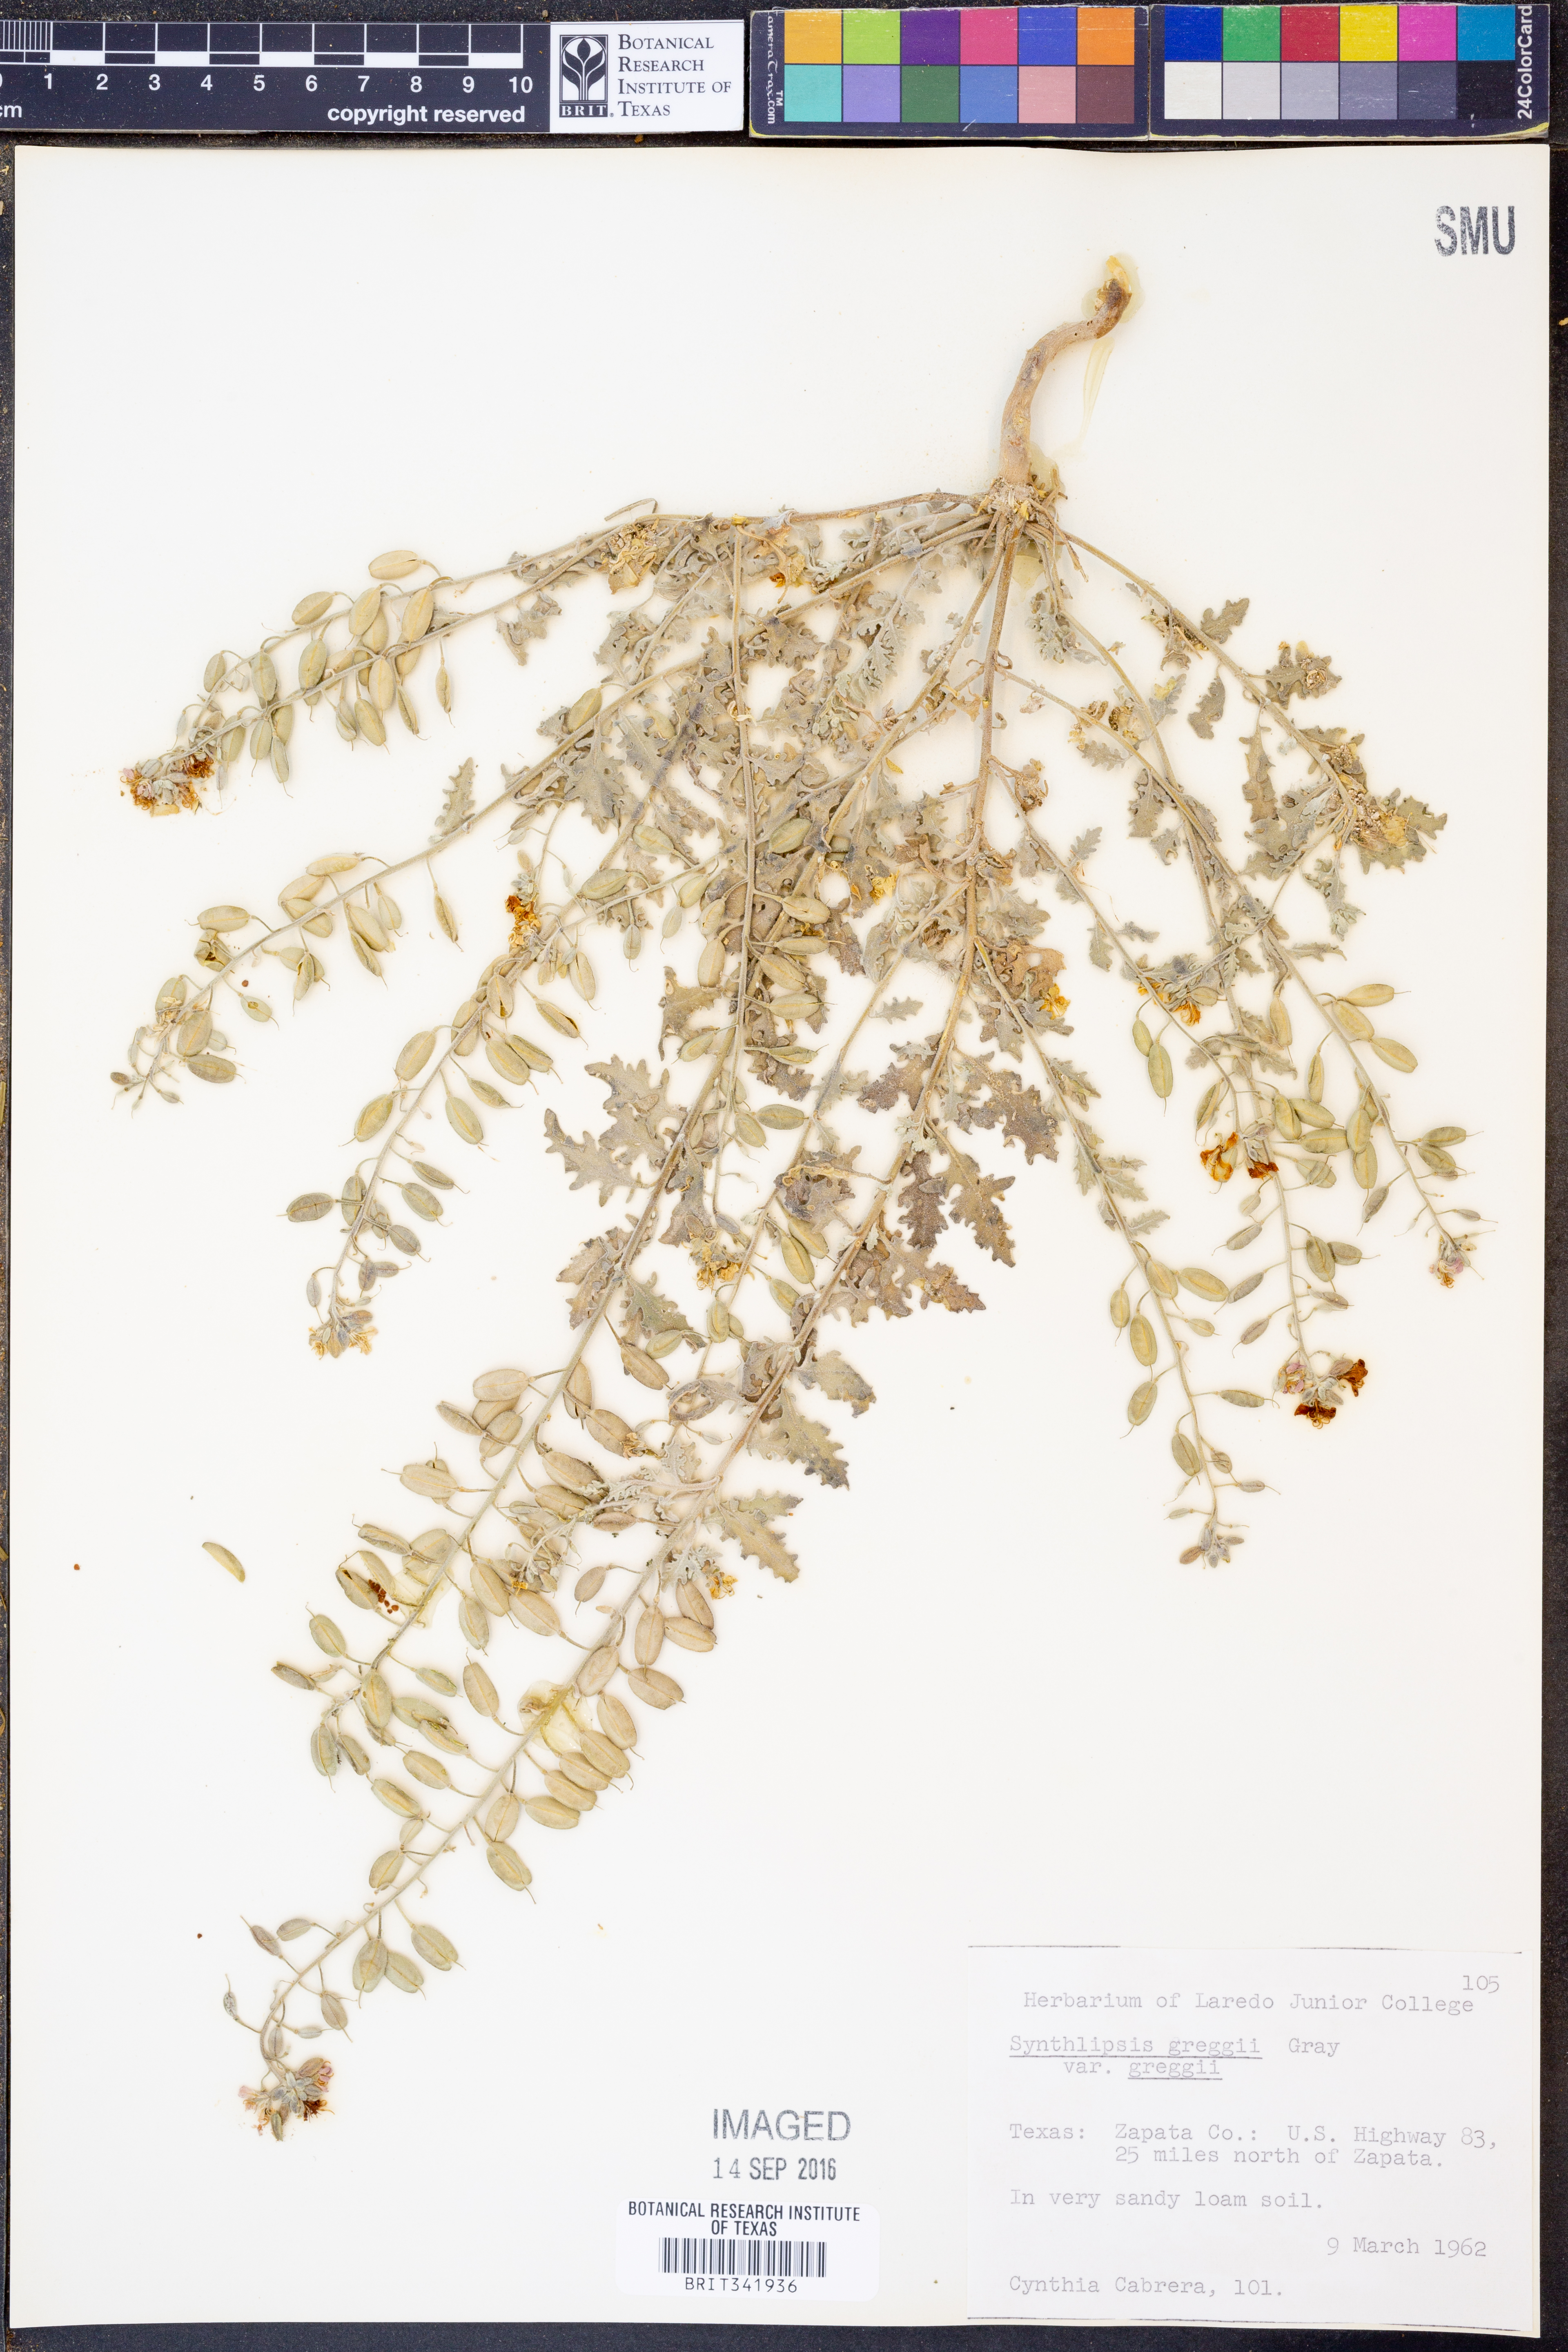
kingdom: Plantae
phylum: Tracheophyta
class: Magnoliopsida
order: Brassicales
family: Brassicaceae
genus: Synthlipsis
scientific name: Synthlipsis greggii
